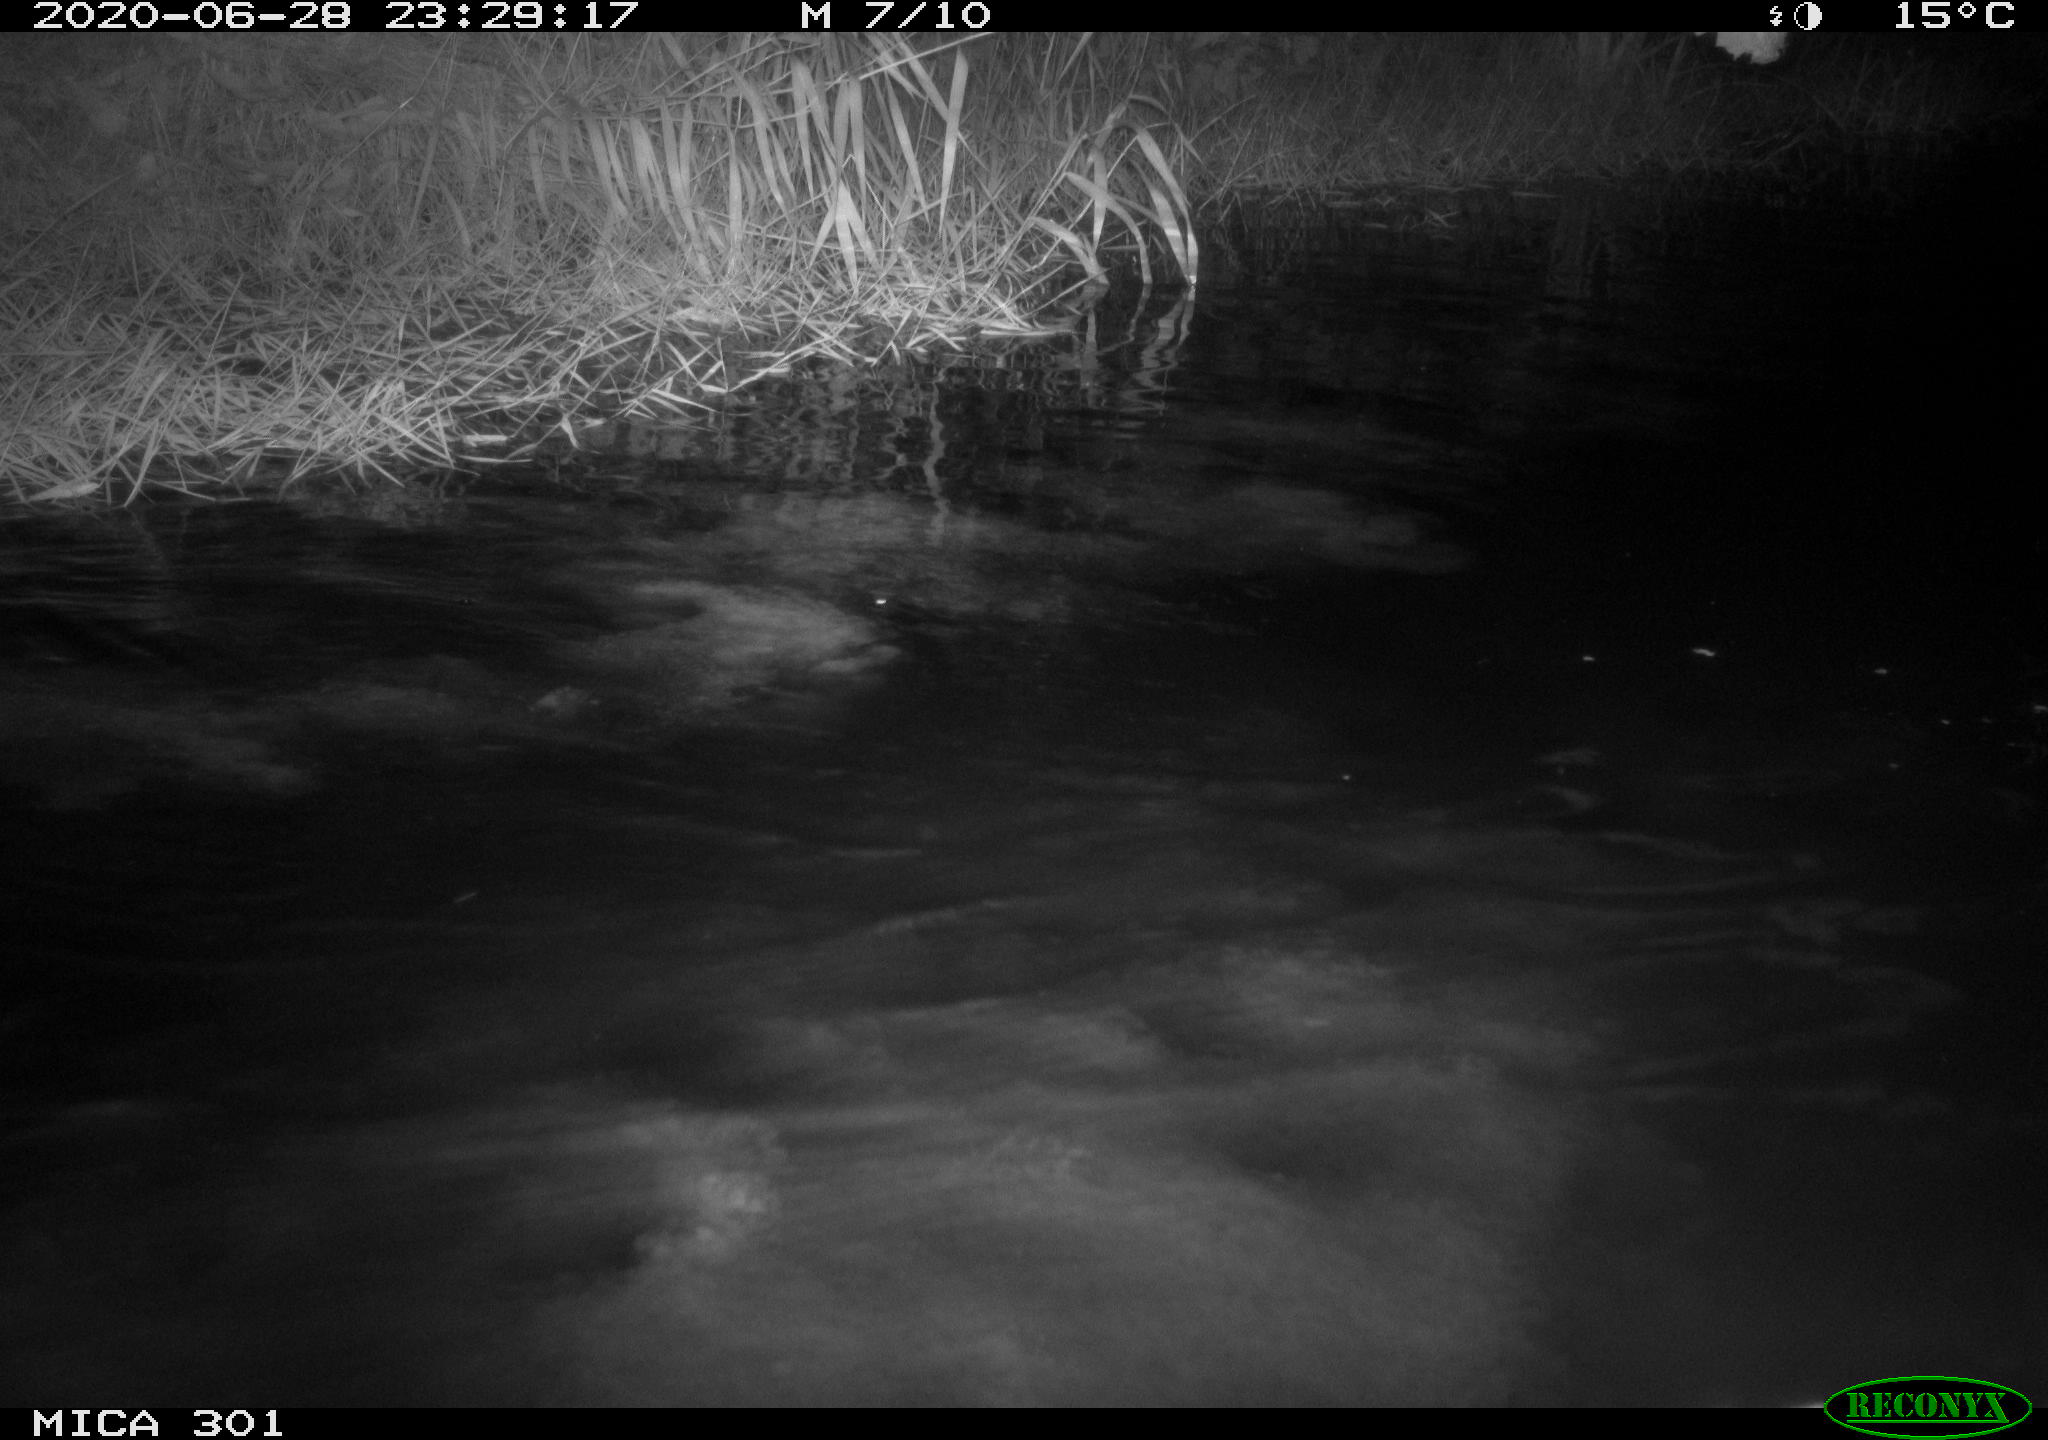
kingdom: Animalia
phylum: Chordata
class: Mammalia
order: Rodentia
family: Castoridae
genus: Castor
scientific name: Castor fiber
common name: Eurasian beaver
